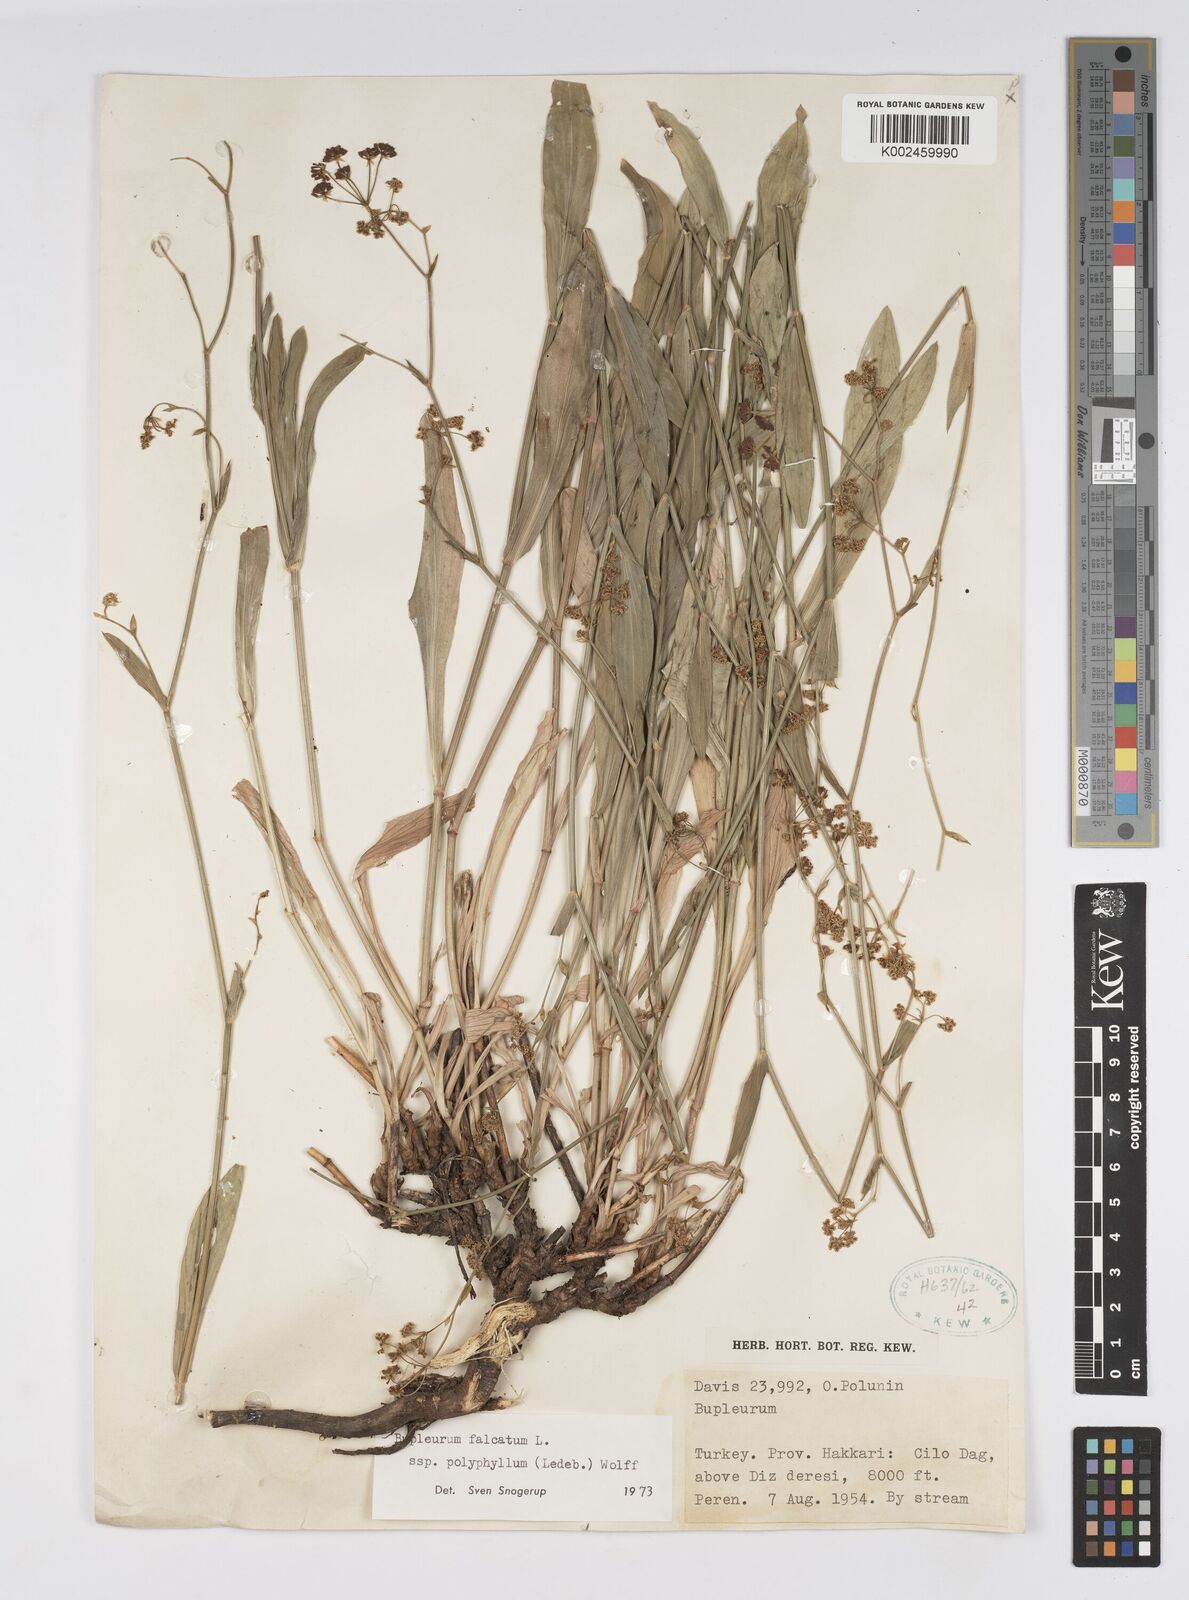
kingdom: Plantae
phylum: Tracheophyta
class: Magnoliopsida
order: Apiales
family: Apiaceae
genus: Bupleurum
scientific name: Bupleurum falcatum
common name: Sickle-leaved hare's-ear
